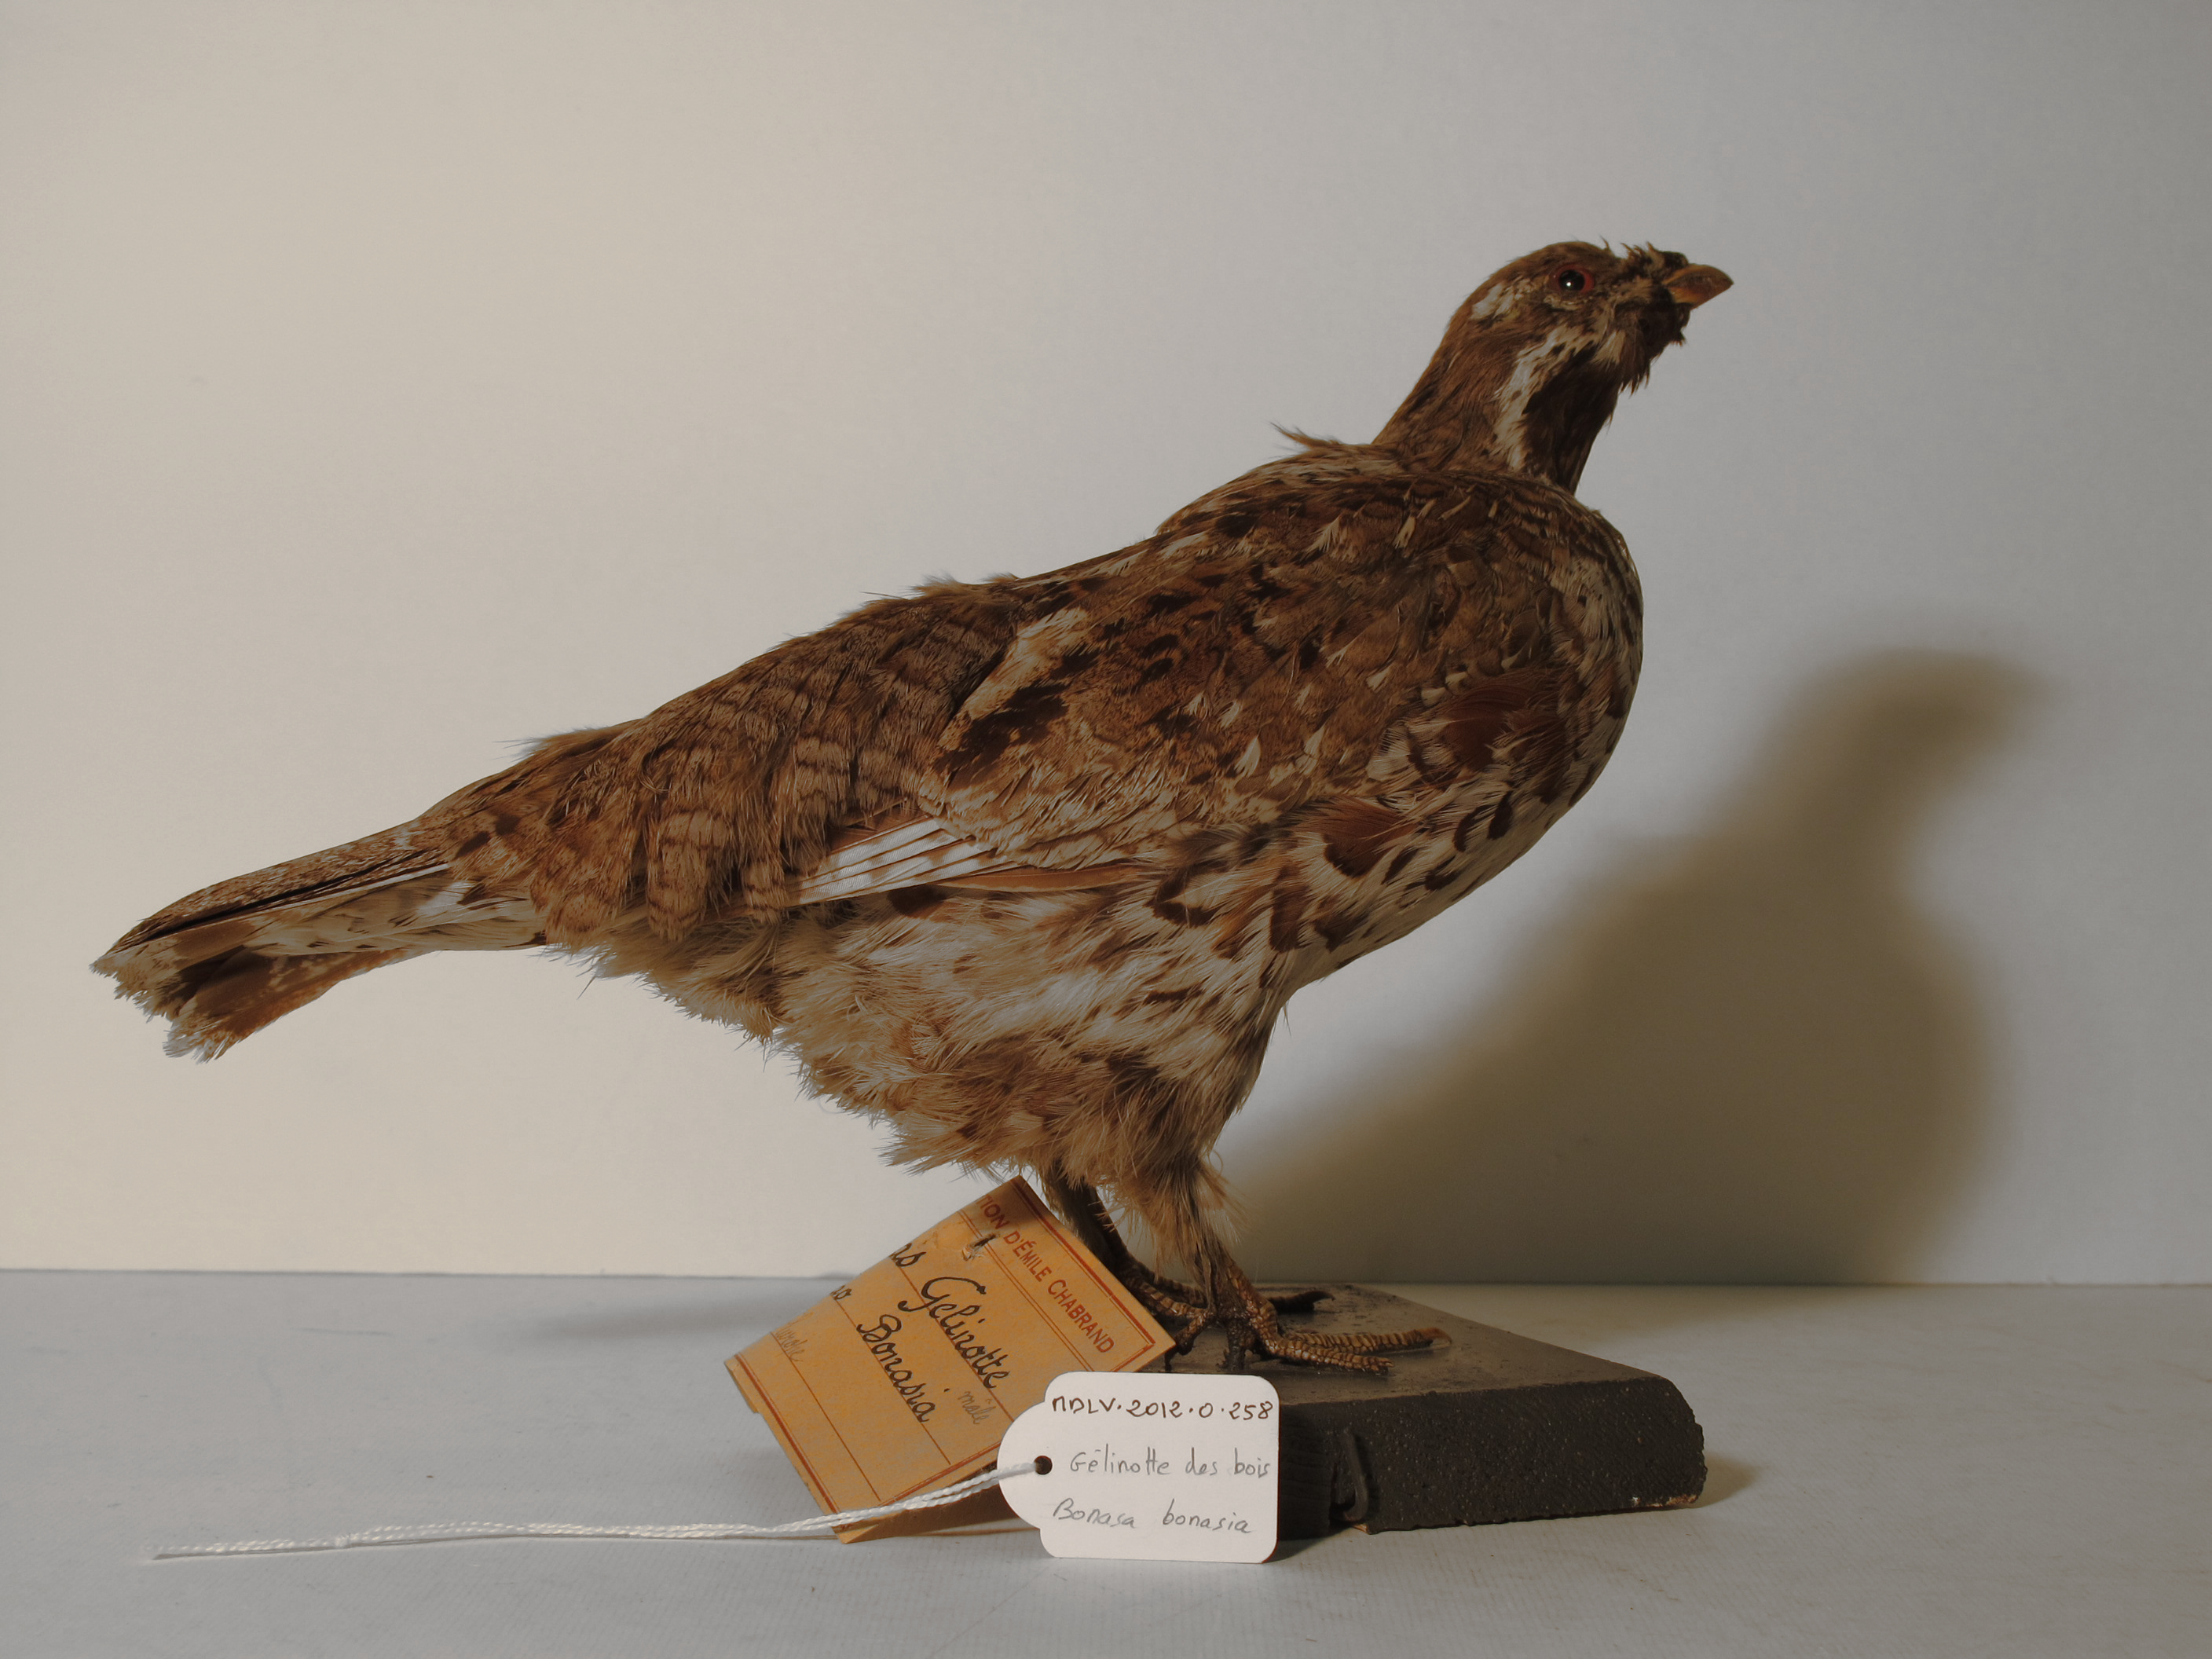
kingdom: Animalia
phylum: Chordata
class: Aves
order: Galliformes
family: Phasianidae
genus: Tetrastes
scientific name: Tetrastes bonasia
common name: Hazel Grouse
